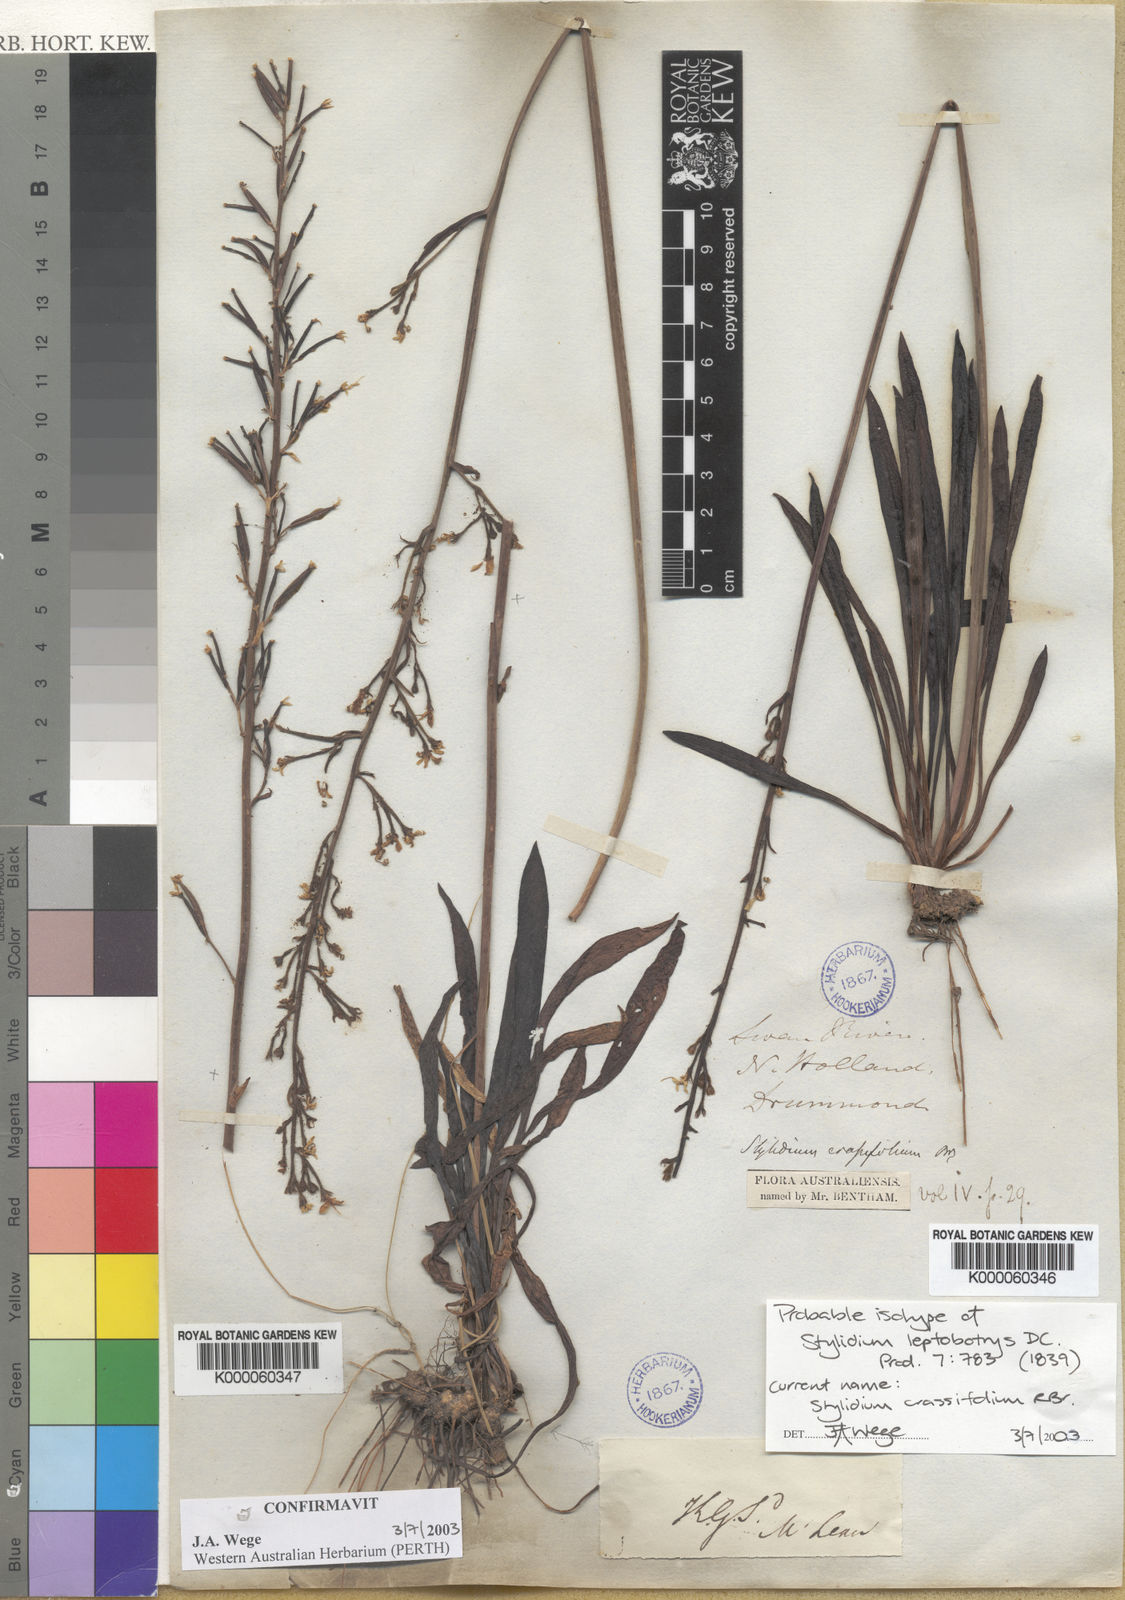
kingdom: Plantae
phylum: Tracheophyta
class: Magnoliopsida
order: Asterales
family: Stylidiaceae
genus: Stylidium
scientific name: Stylidium crassifolium
